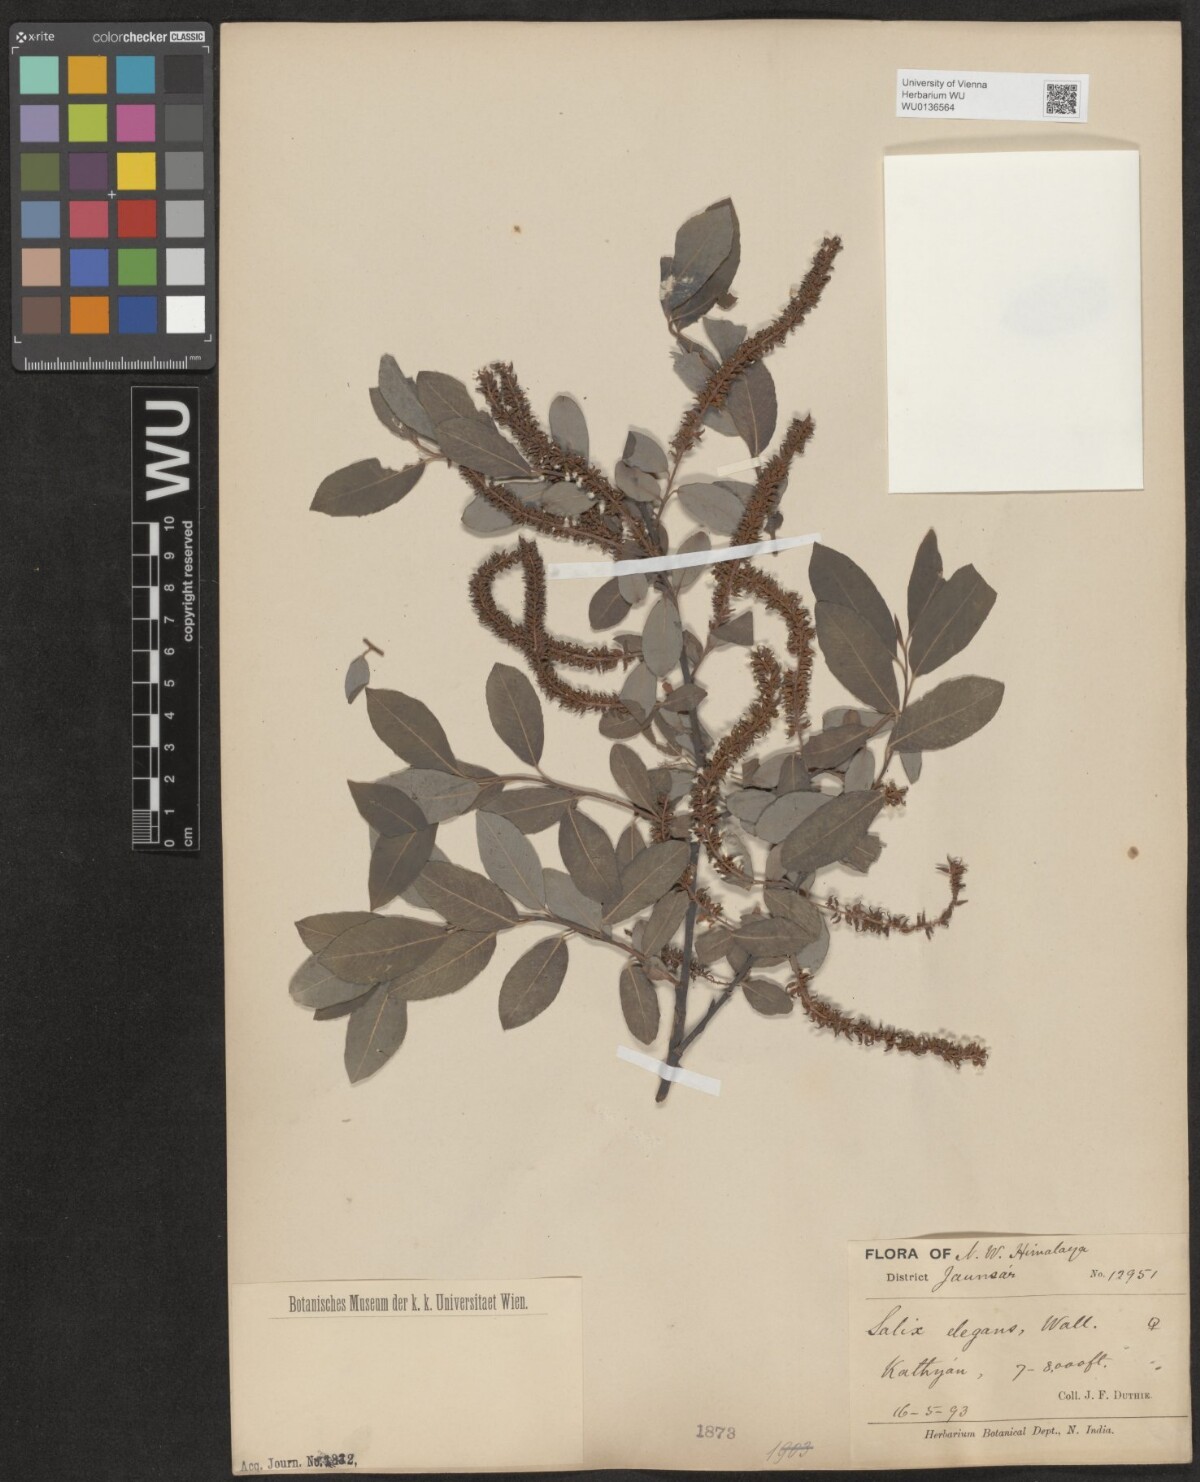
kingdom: Plantae
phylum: Tracheophyta
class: Magnoliopsida
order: Malpighiales
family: Salicaceae
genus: Salix
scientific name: Salix hastata
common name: Halberd willow
